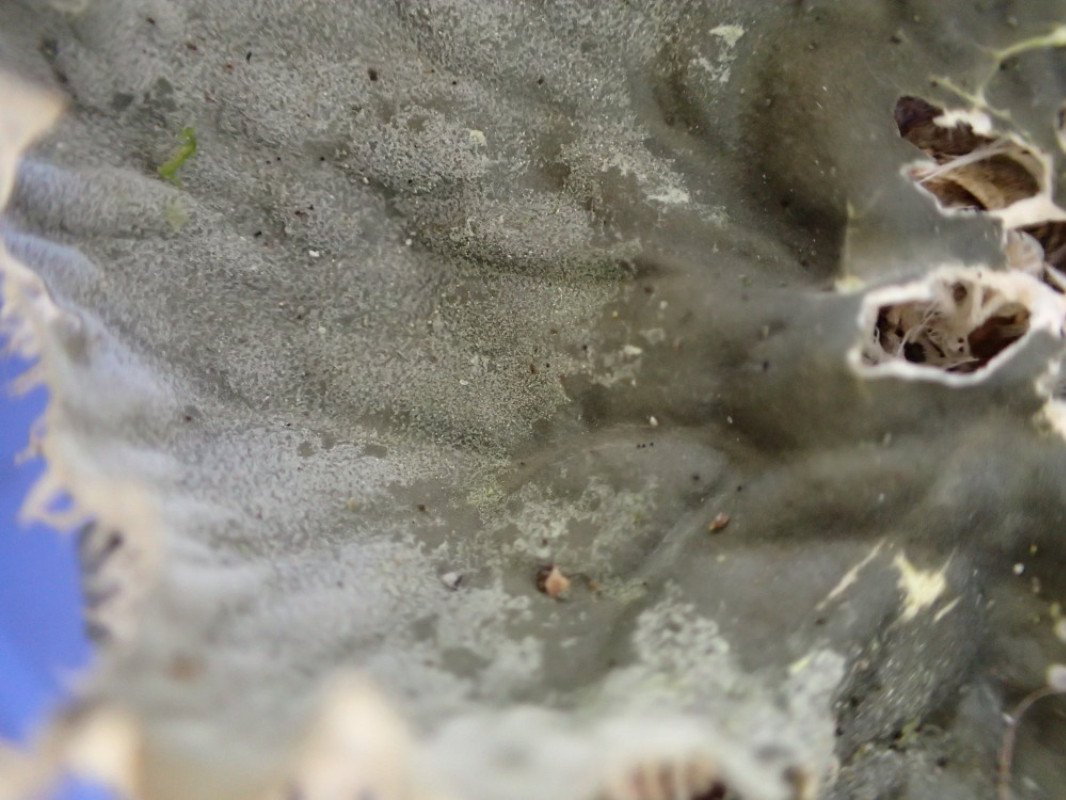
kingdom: Fungi
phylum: Ascomycota
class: Lecanoromycetes
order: Peltigerales
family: Peltigeraceae
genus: Peltigera
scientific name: Peltigera membranacea
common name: tynd skjoldlav
